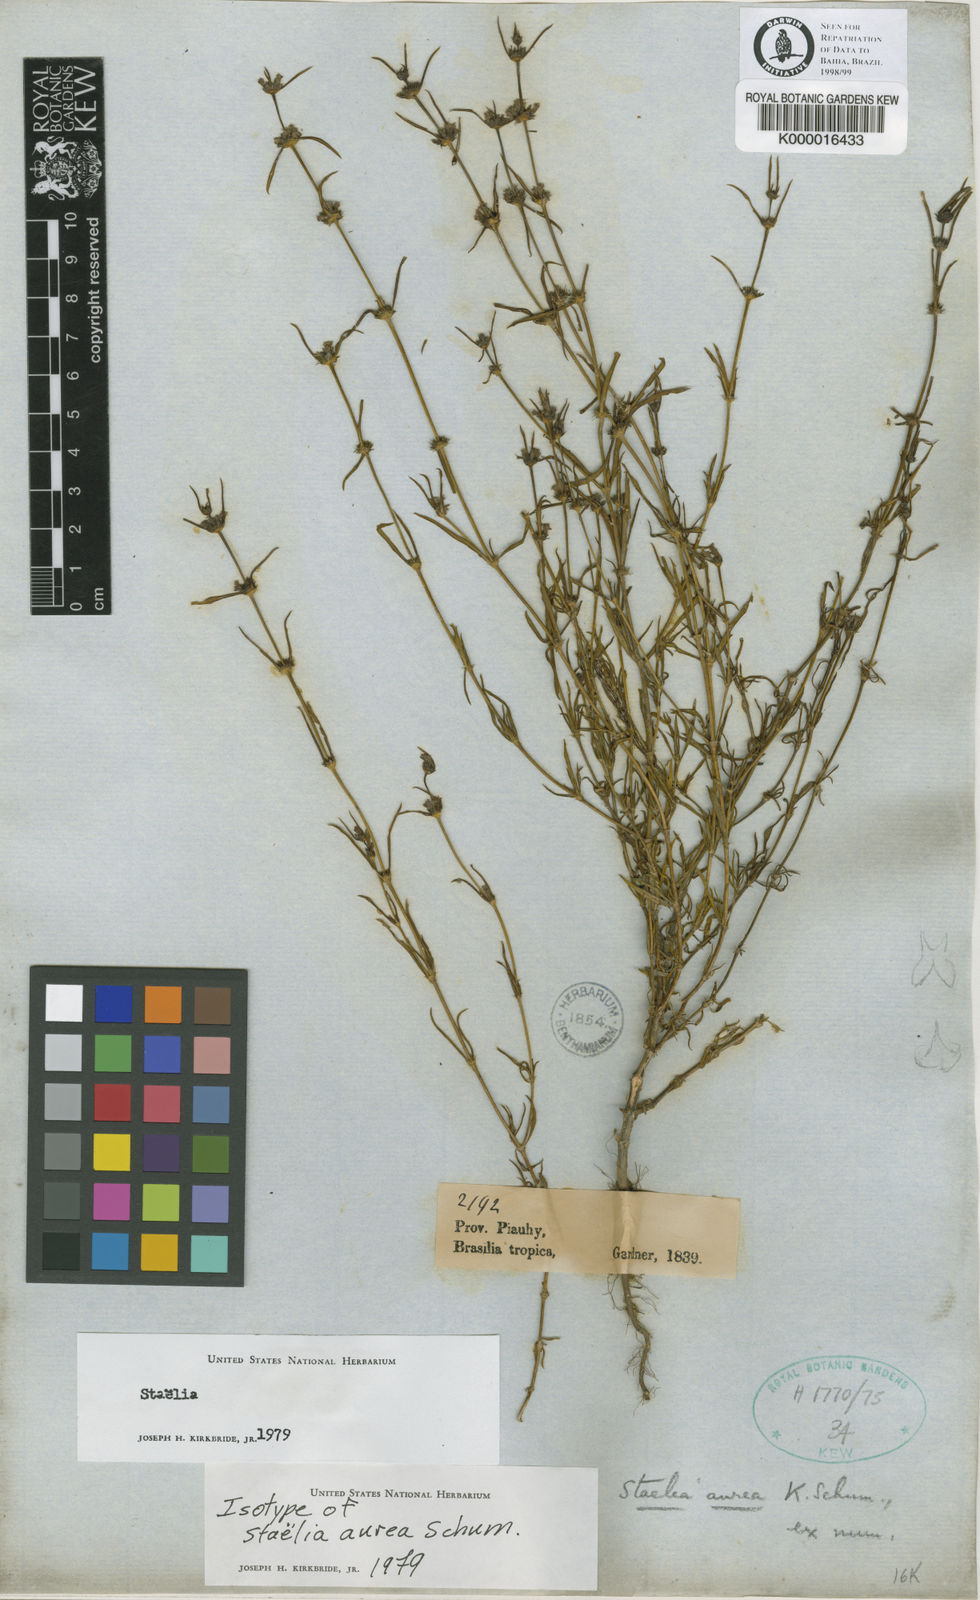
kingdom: Plantae
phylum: Tracheophyta
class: Magnoliopsida
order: Gentianales
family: Rubiaceae
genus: Staelia
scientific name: Staelia aurea
